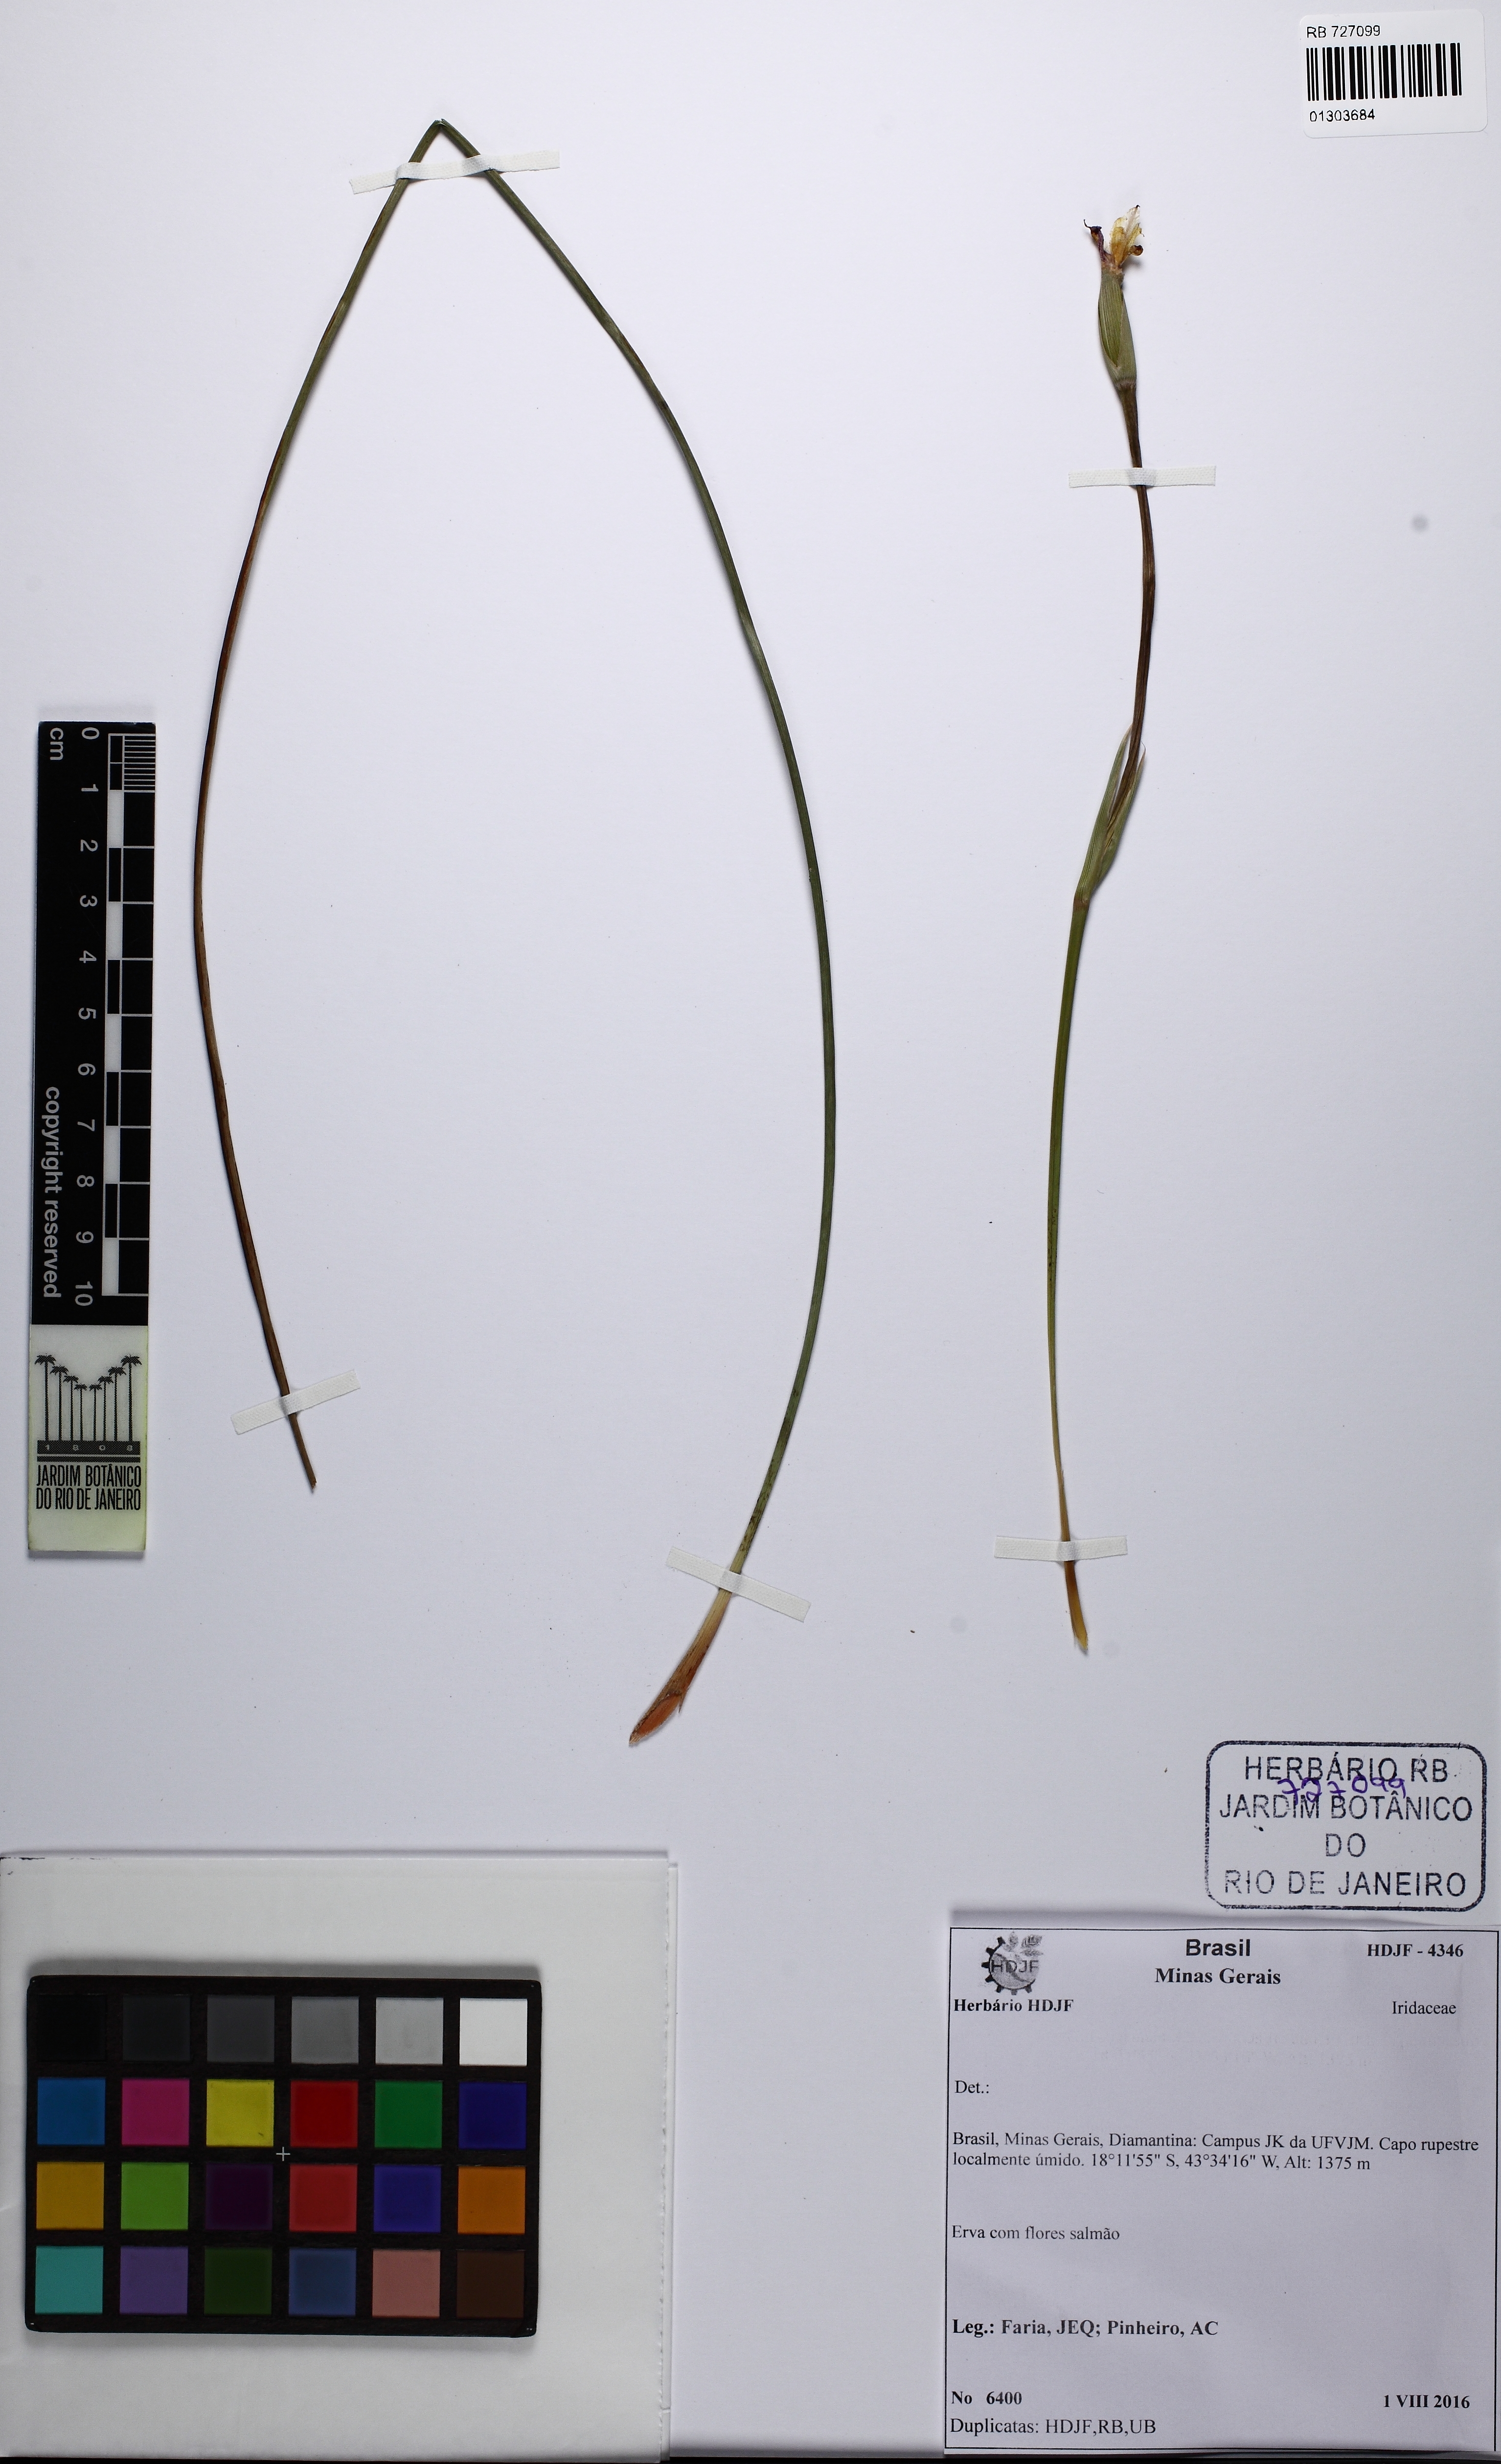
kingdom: Plantae
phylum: Tracheophyta
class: Liliopsida
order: Asparagales
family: Iridaceae
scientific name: Iridaceae
